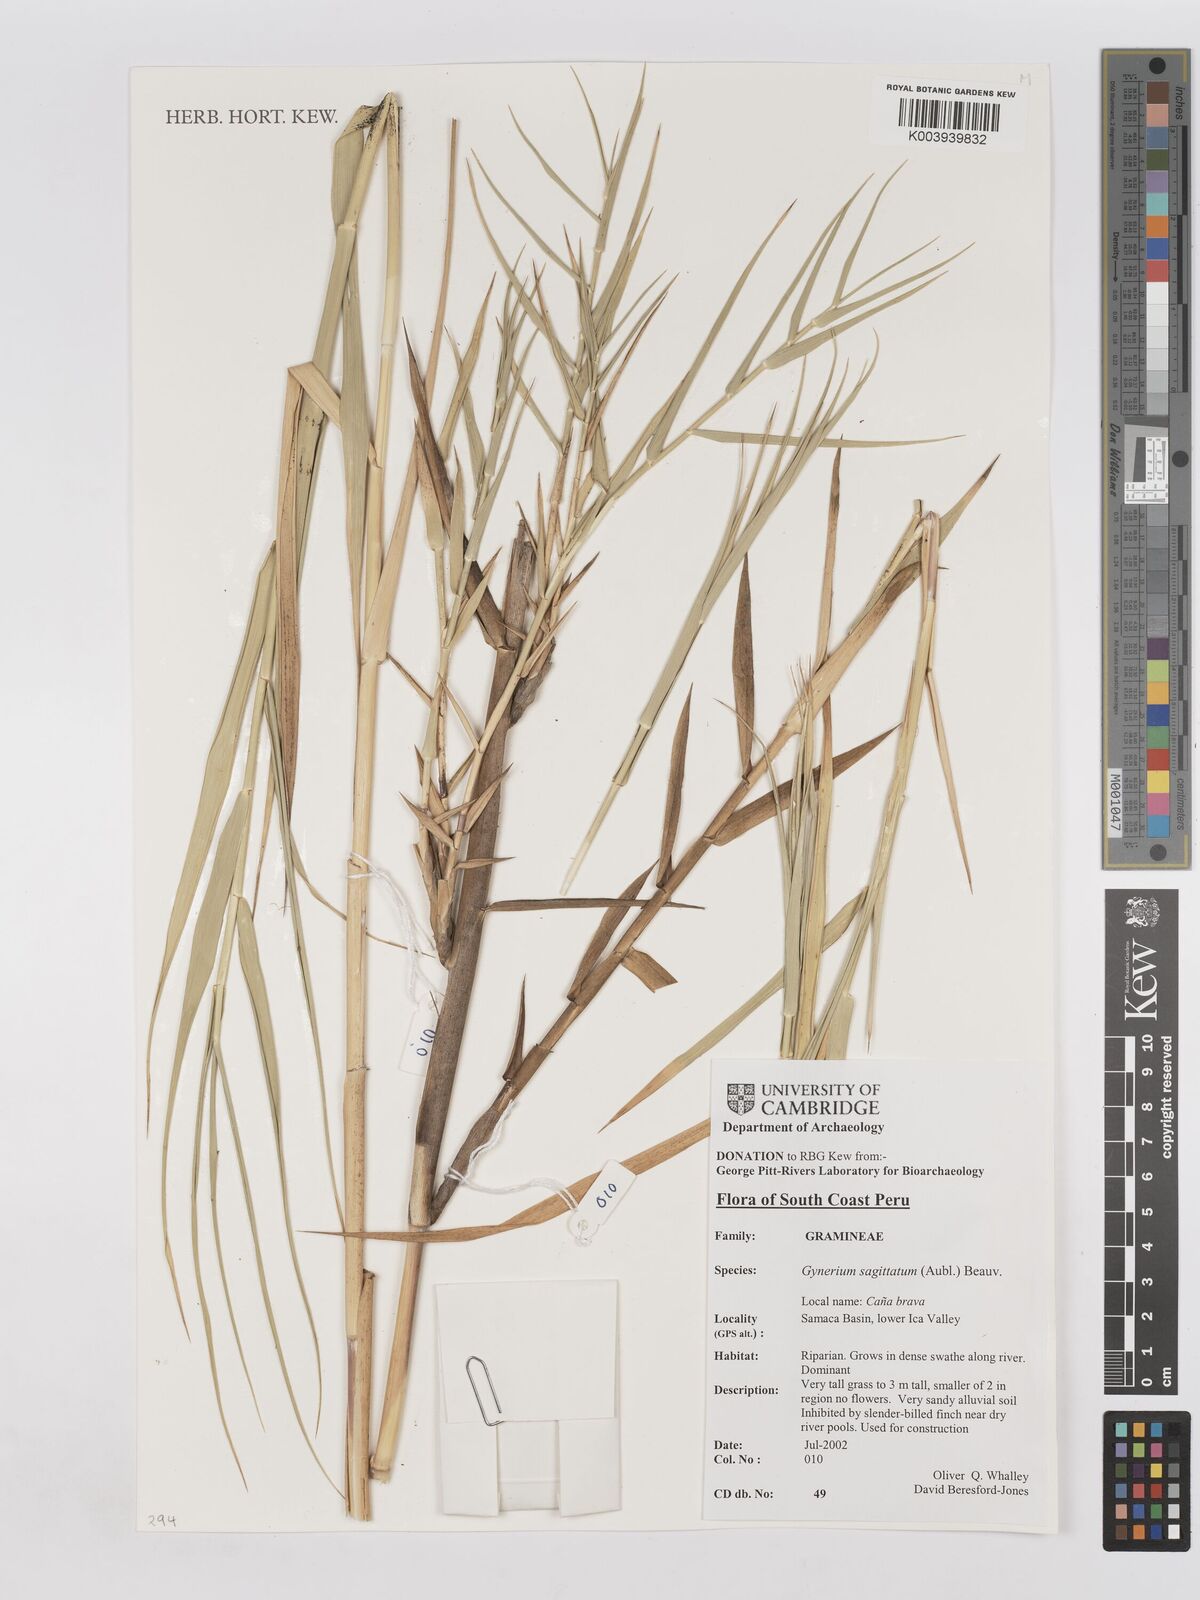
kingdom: Plantae
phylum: Tracheophyta
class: Liliopsida
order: Poales
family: Poaceae
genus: Gynerium
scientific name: Gynerium sagittatum
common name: Wild cane
